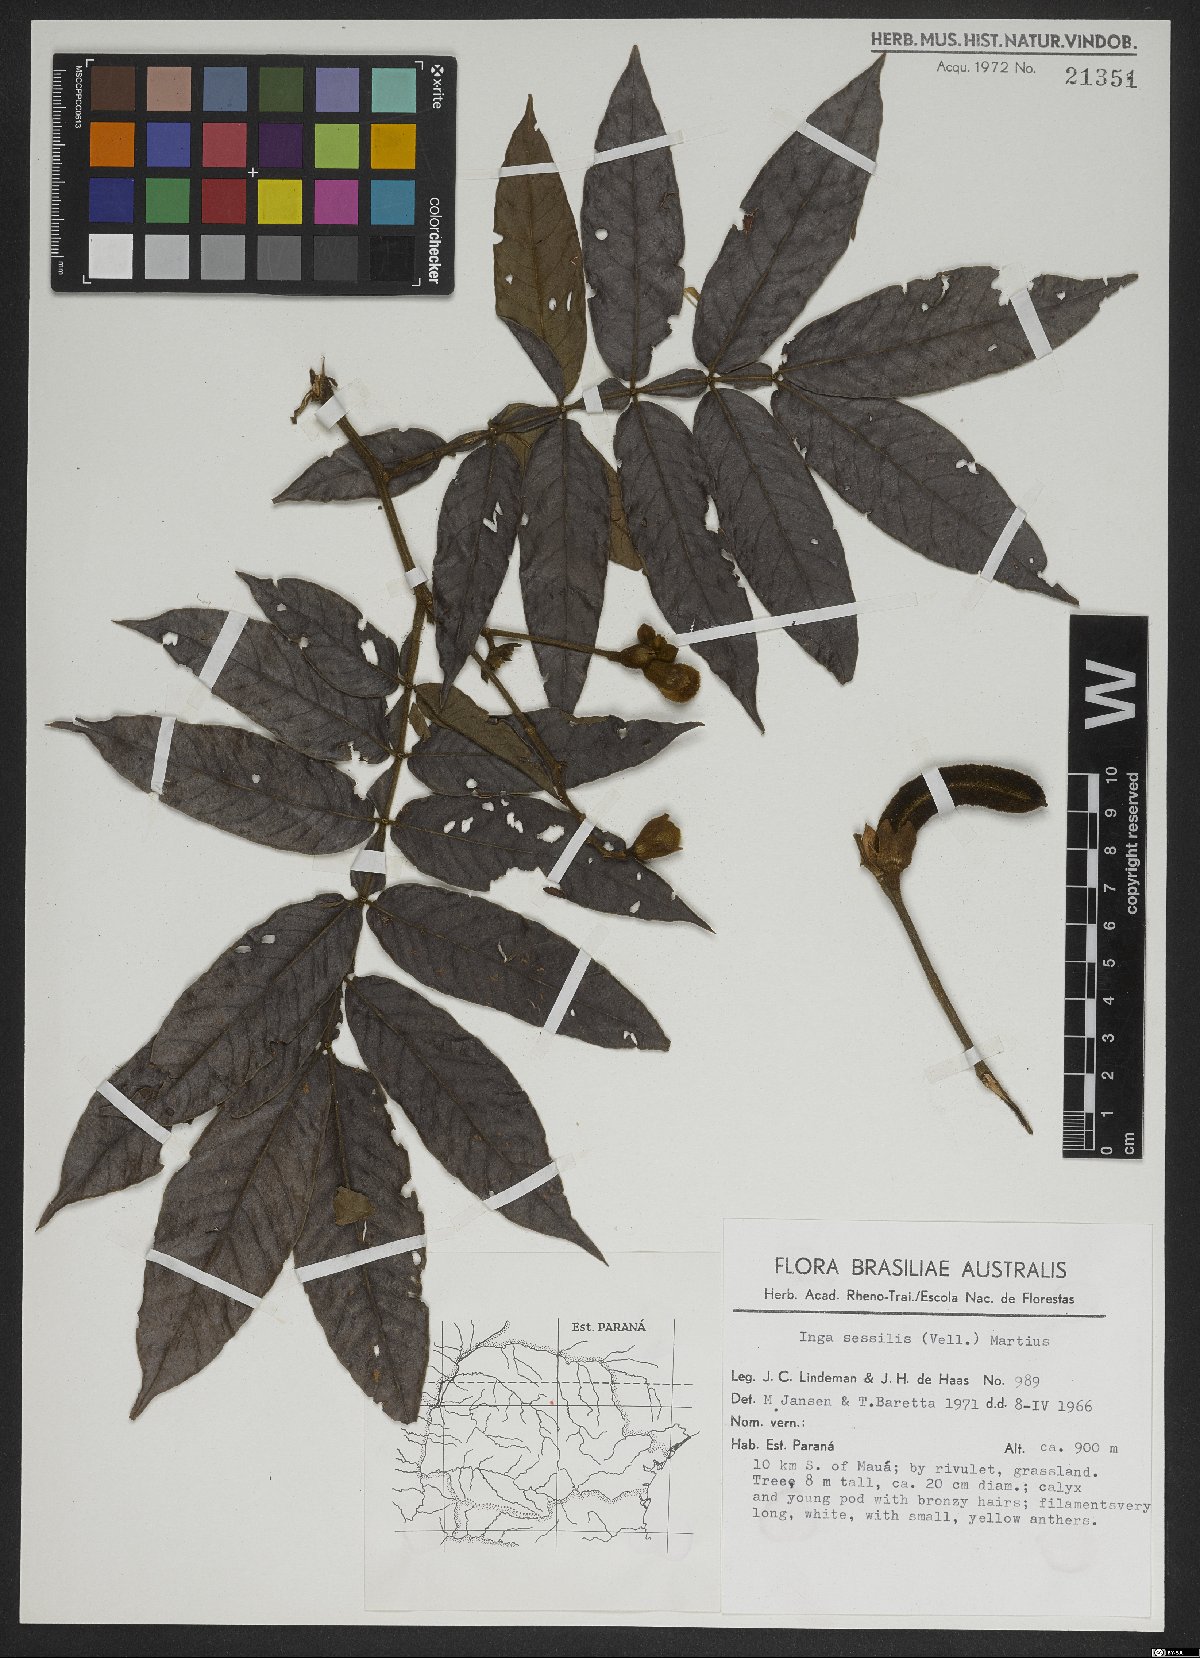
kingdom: Plantae
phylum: Tracheophyta
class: Magnoliopsida
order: Fabales
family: Fabaceae
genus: Inga
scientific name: Inga sessilis
